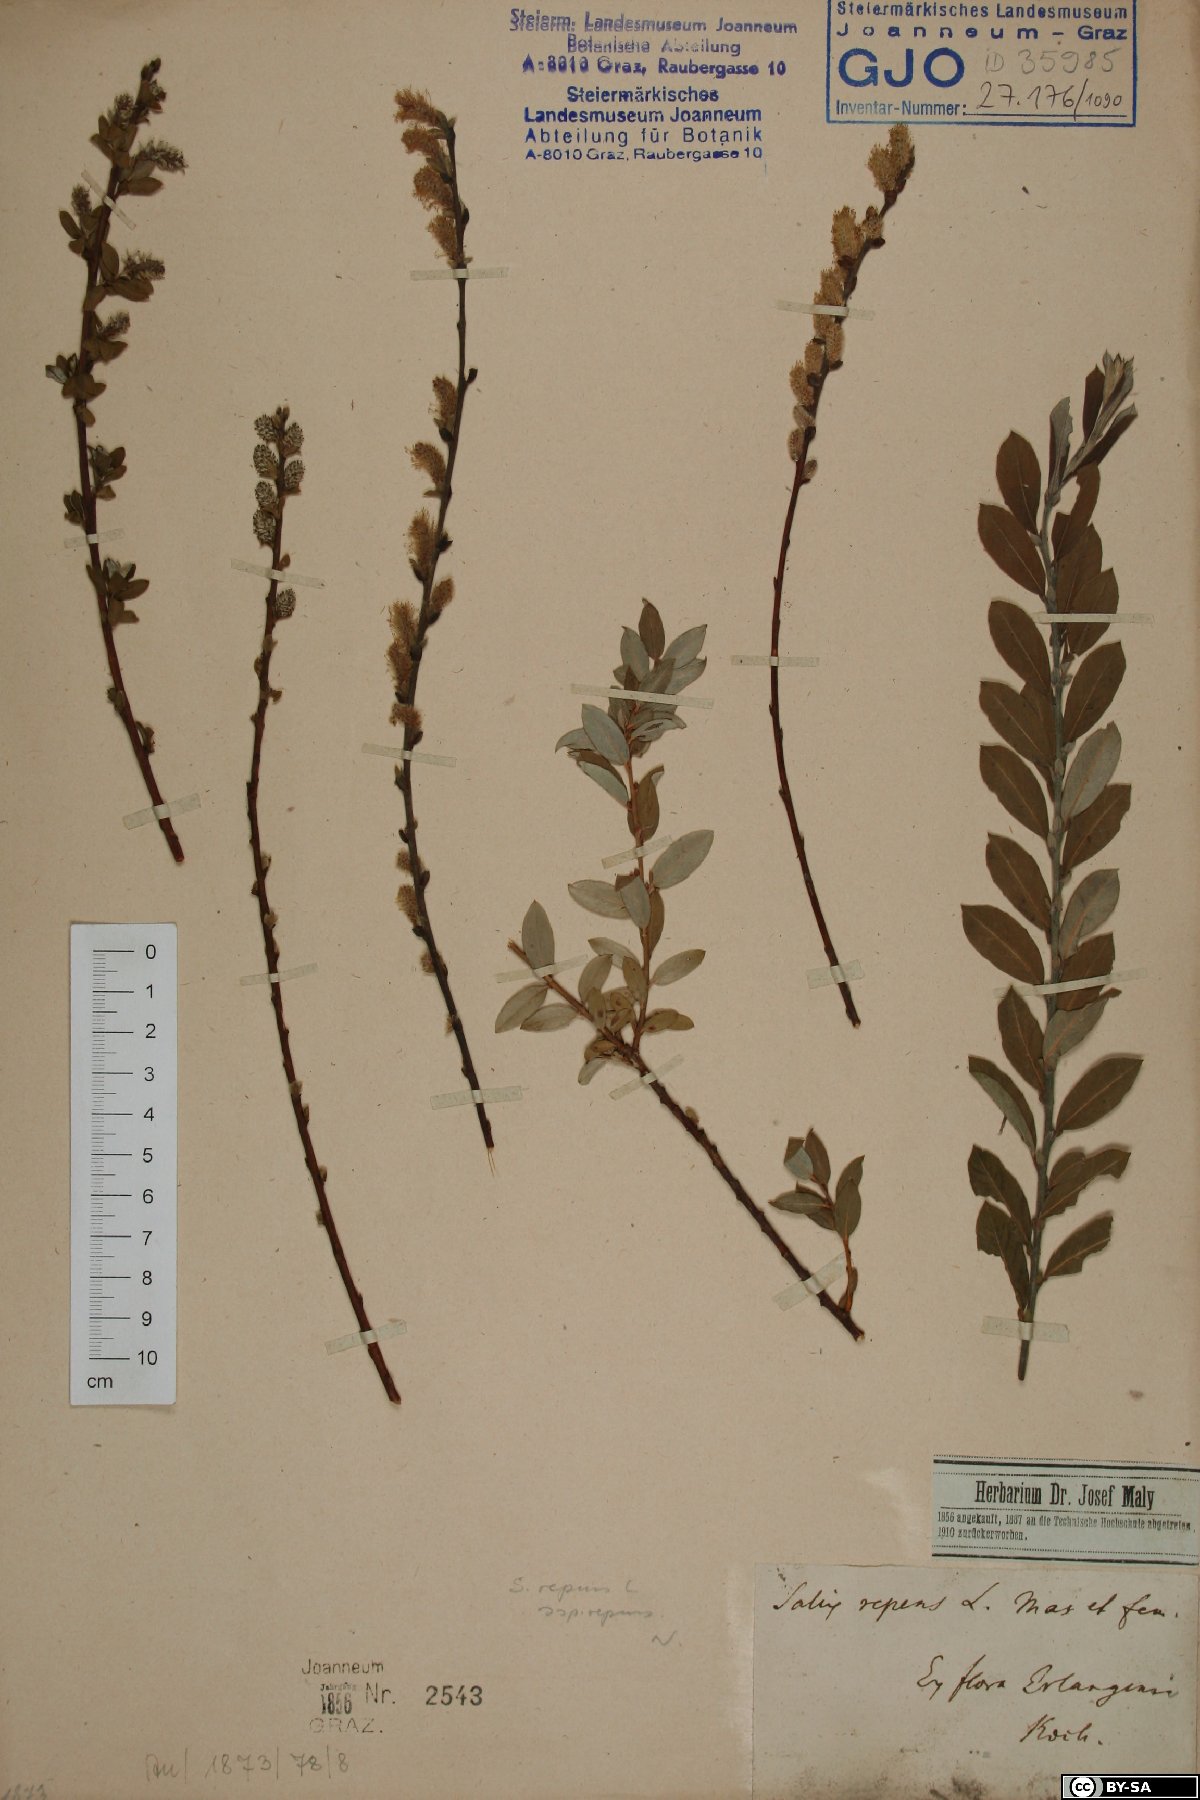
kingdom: Plantae
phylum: Tracheophyta
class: Magnoliopsida
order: Malpighiales
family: Salicaceae
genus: Salix
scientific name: Salix repens
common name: Creeping willow
